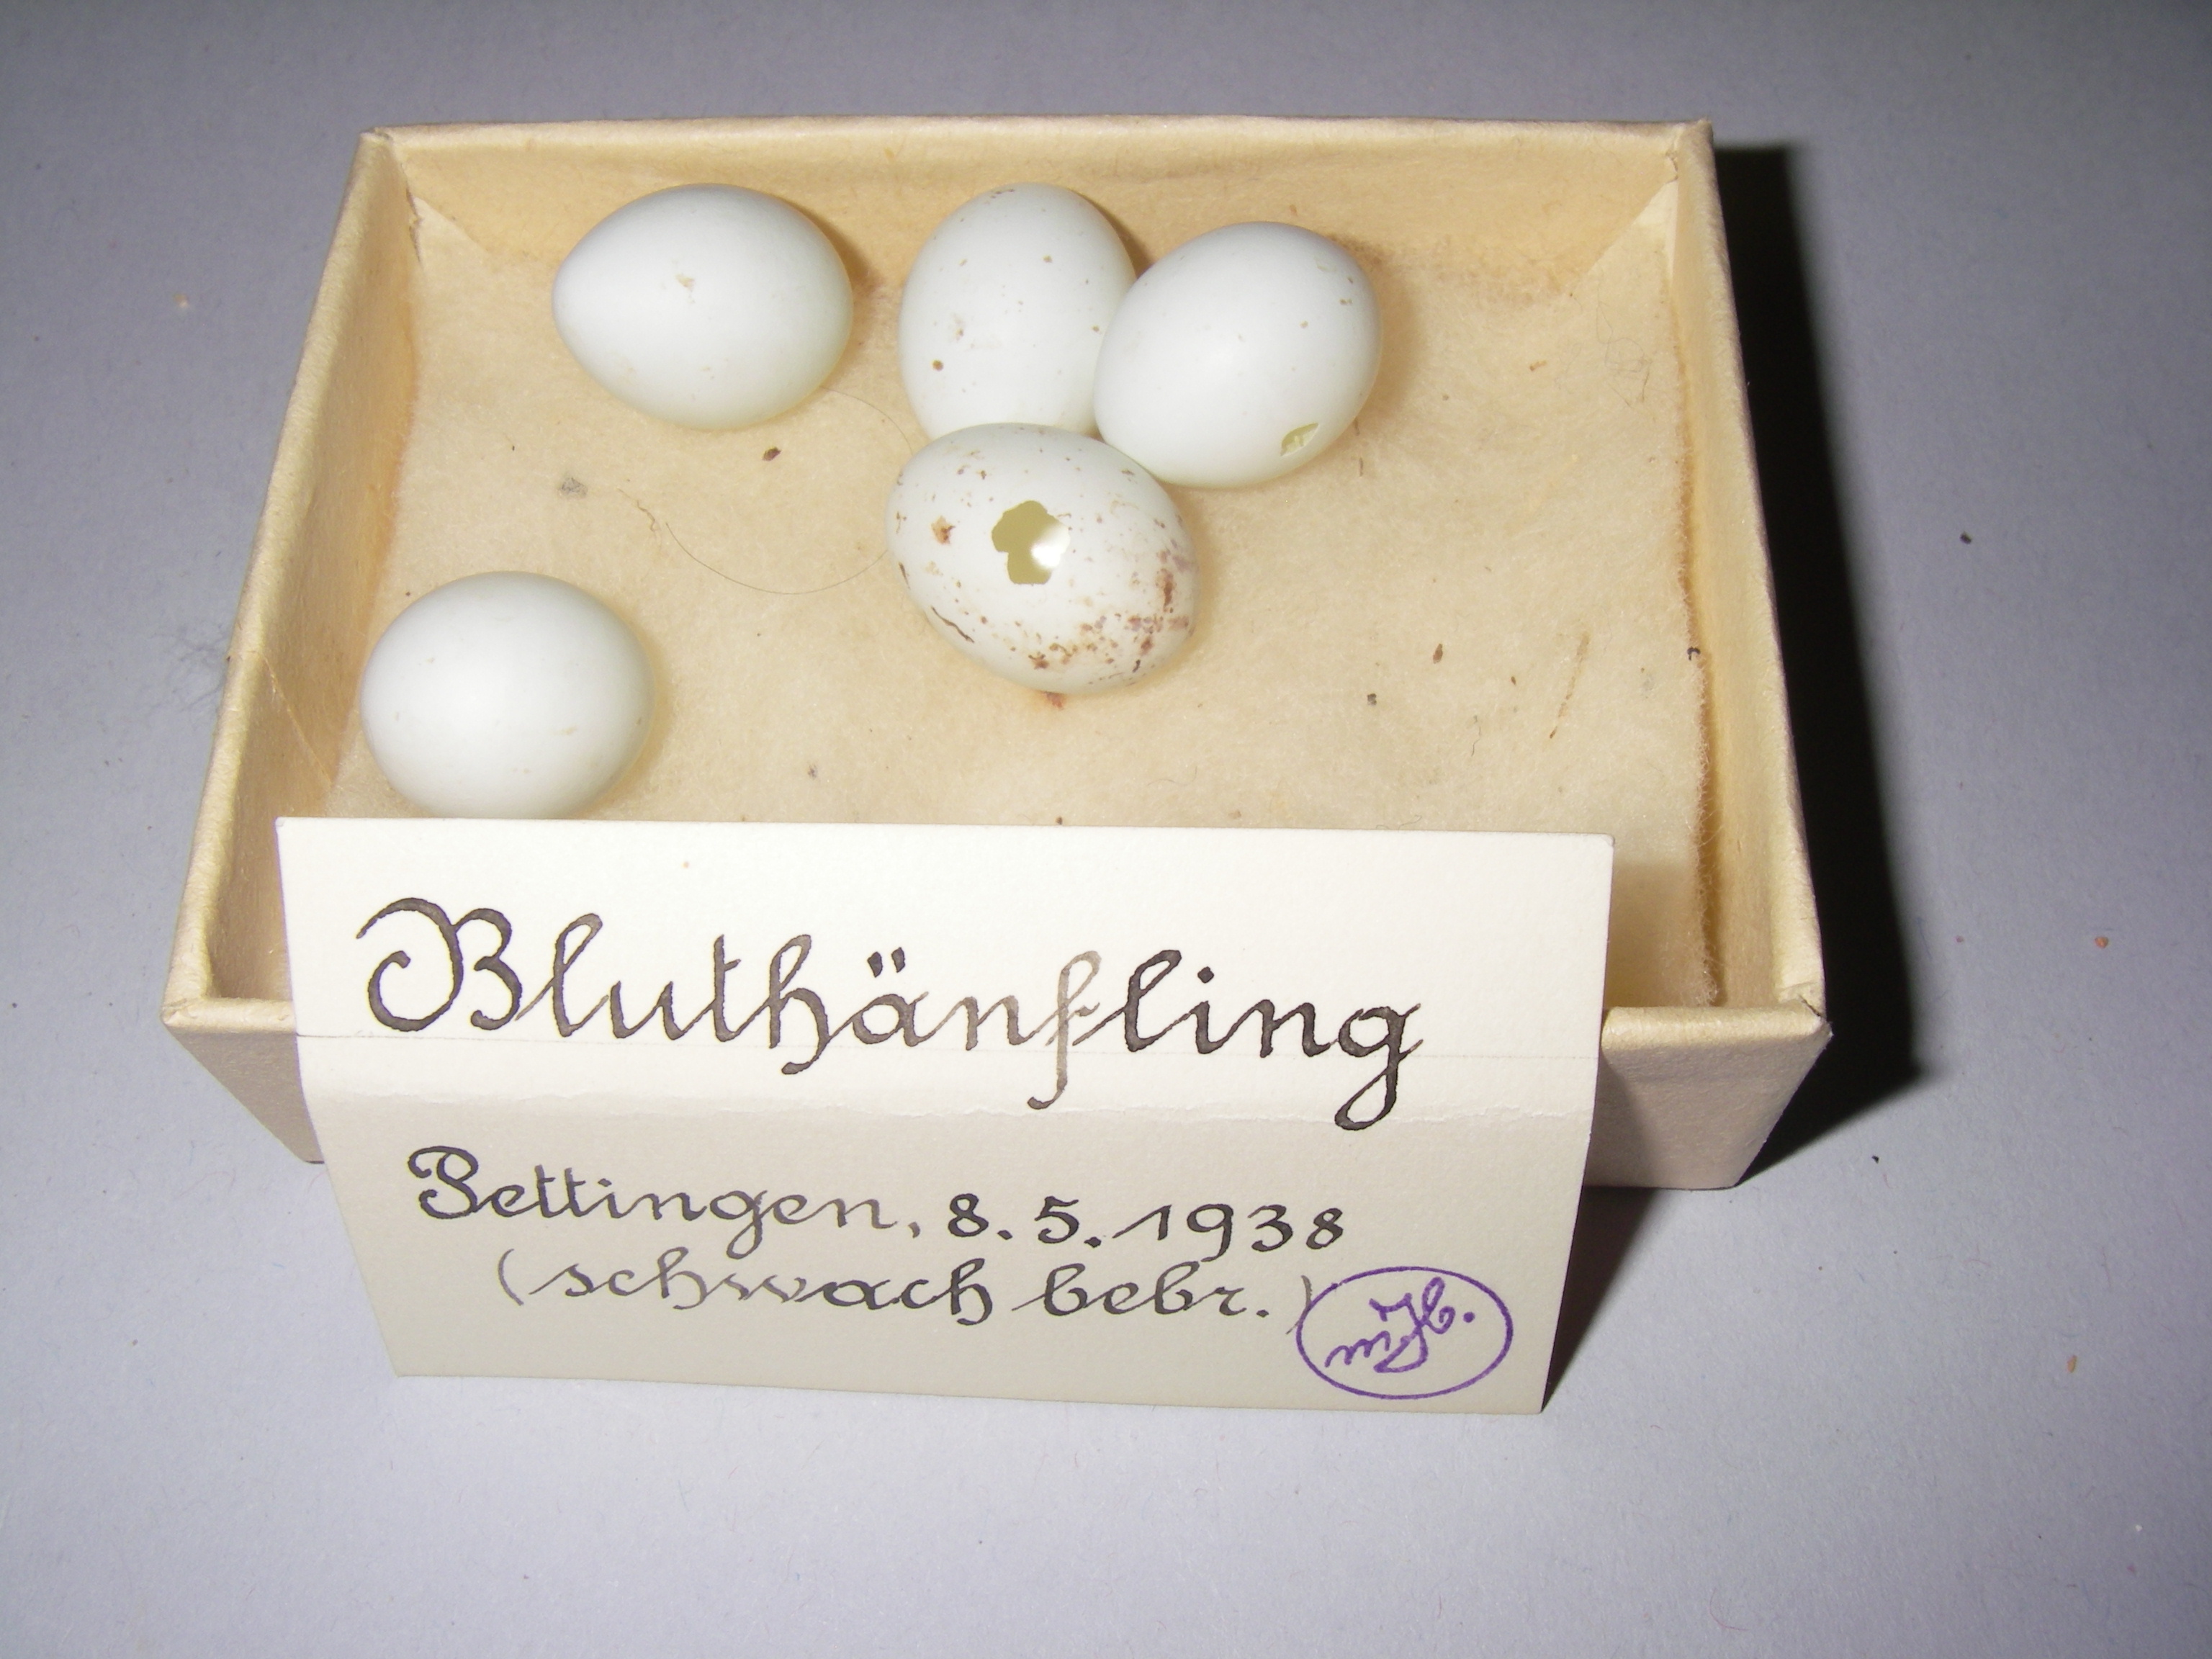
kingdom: Animalia
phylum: Chordata
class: Aves
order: Passeriformes
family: Fringillidae
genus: Linaria
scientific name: Linaria cannabina
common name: Common linnet
